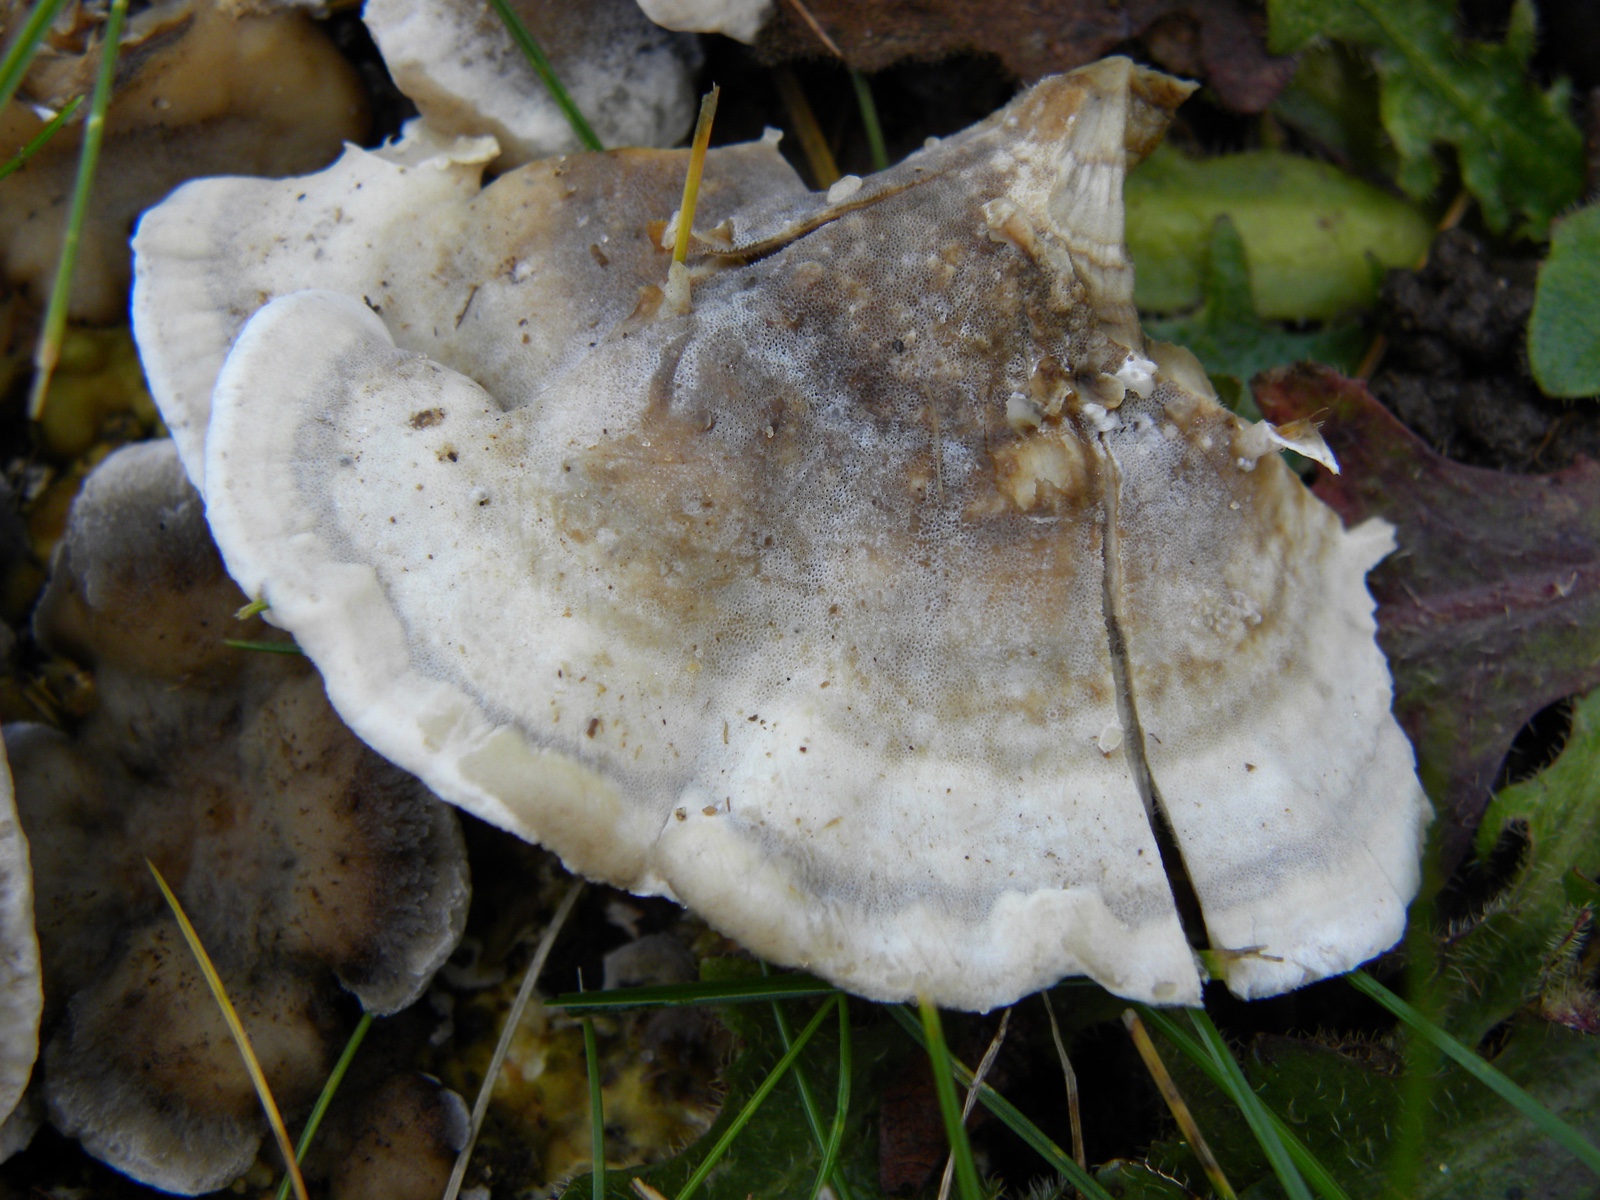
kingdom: Fungi
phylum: Basidiomycota
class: Agaricomycetes
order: Polyporales
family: Phanerochaetaceae
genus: Bjerkandera
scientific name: Bjerkandera adusta
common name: sveden sodporesvamp
